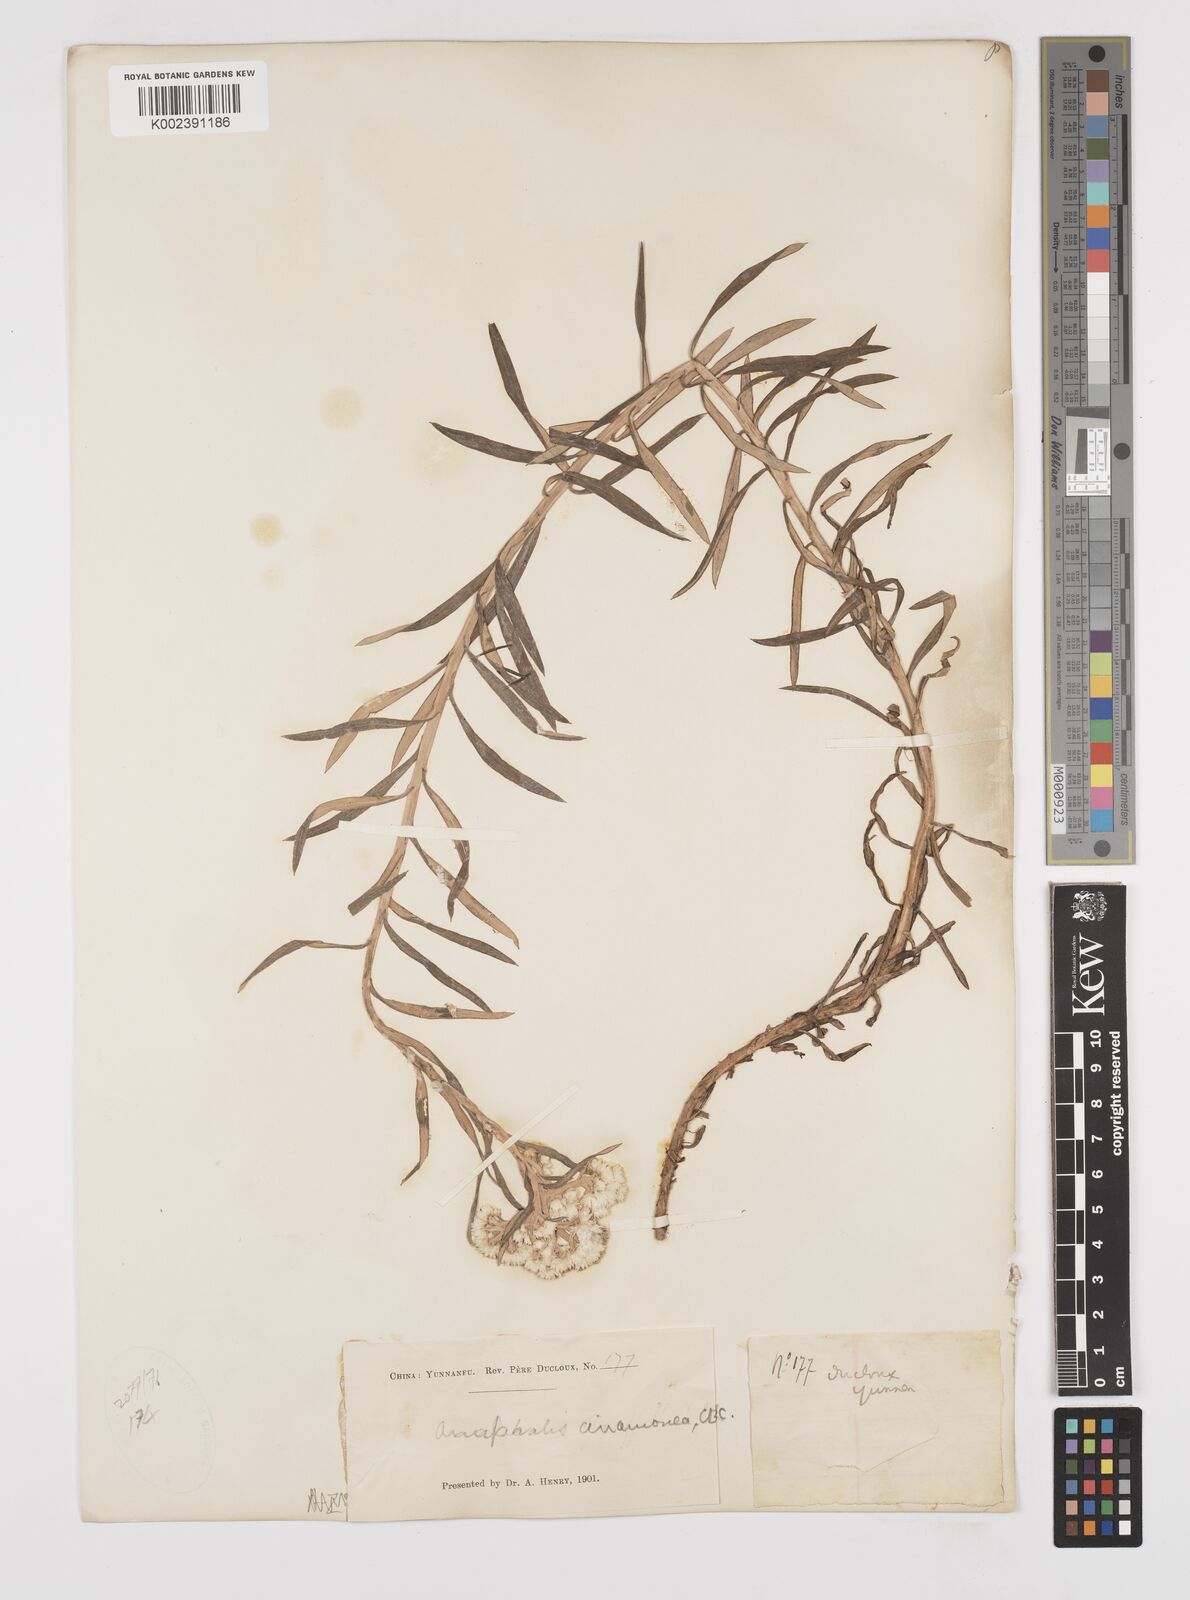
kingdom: Plantae
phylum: Tracheophyta
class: Magnoliopsida
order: Asterales
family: Asteraceae
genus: Anaphalis
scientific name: Anaphalis margaritacea
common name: Pearly everlasting
